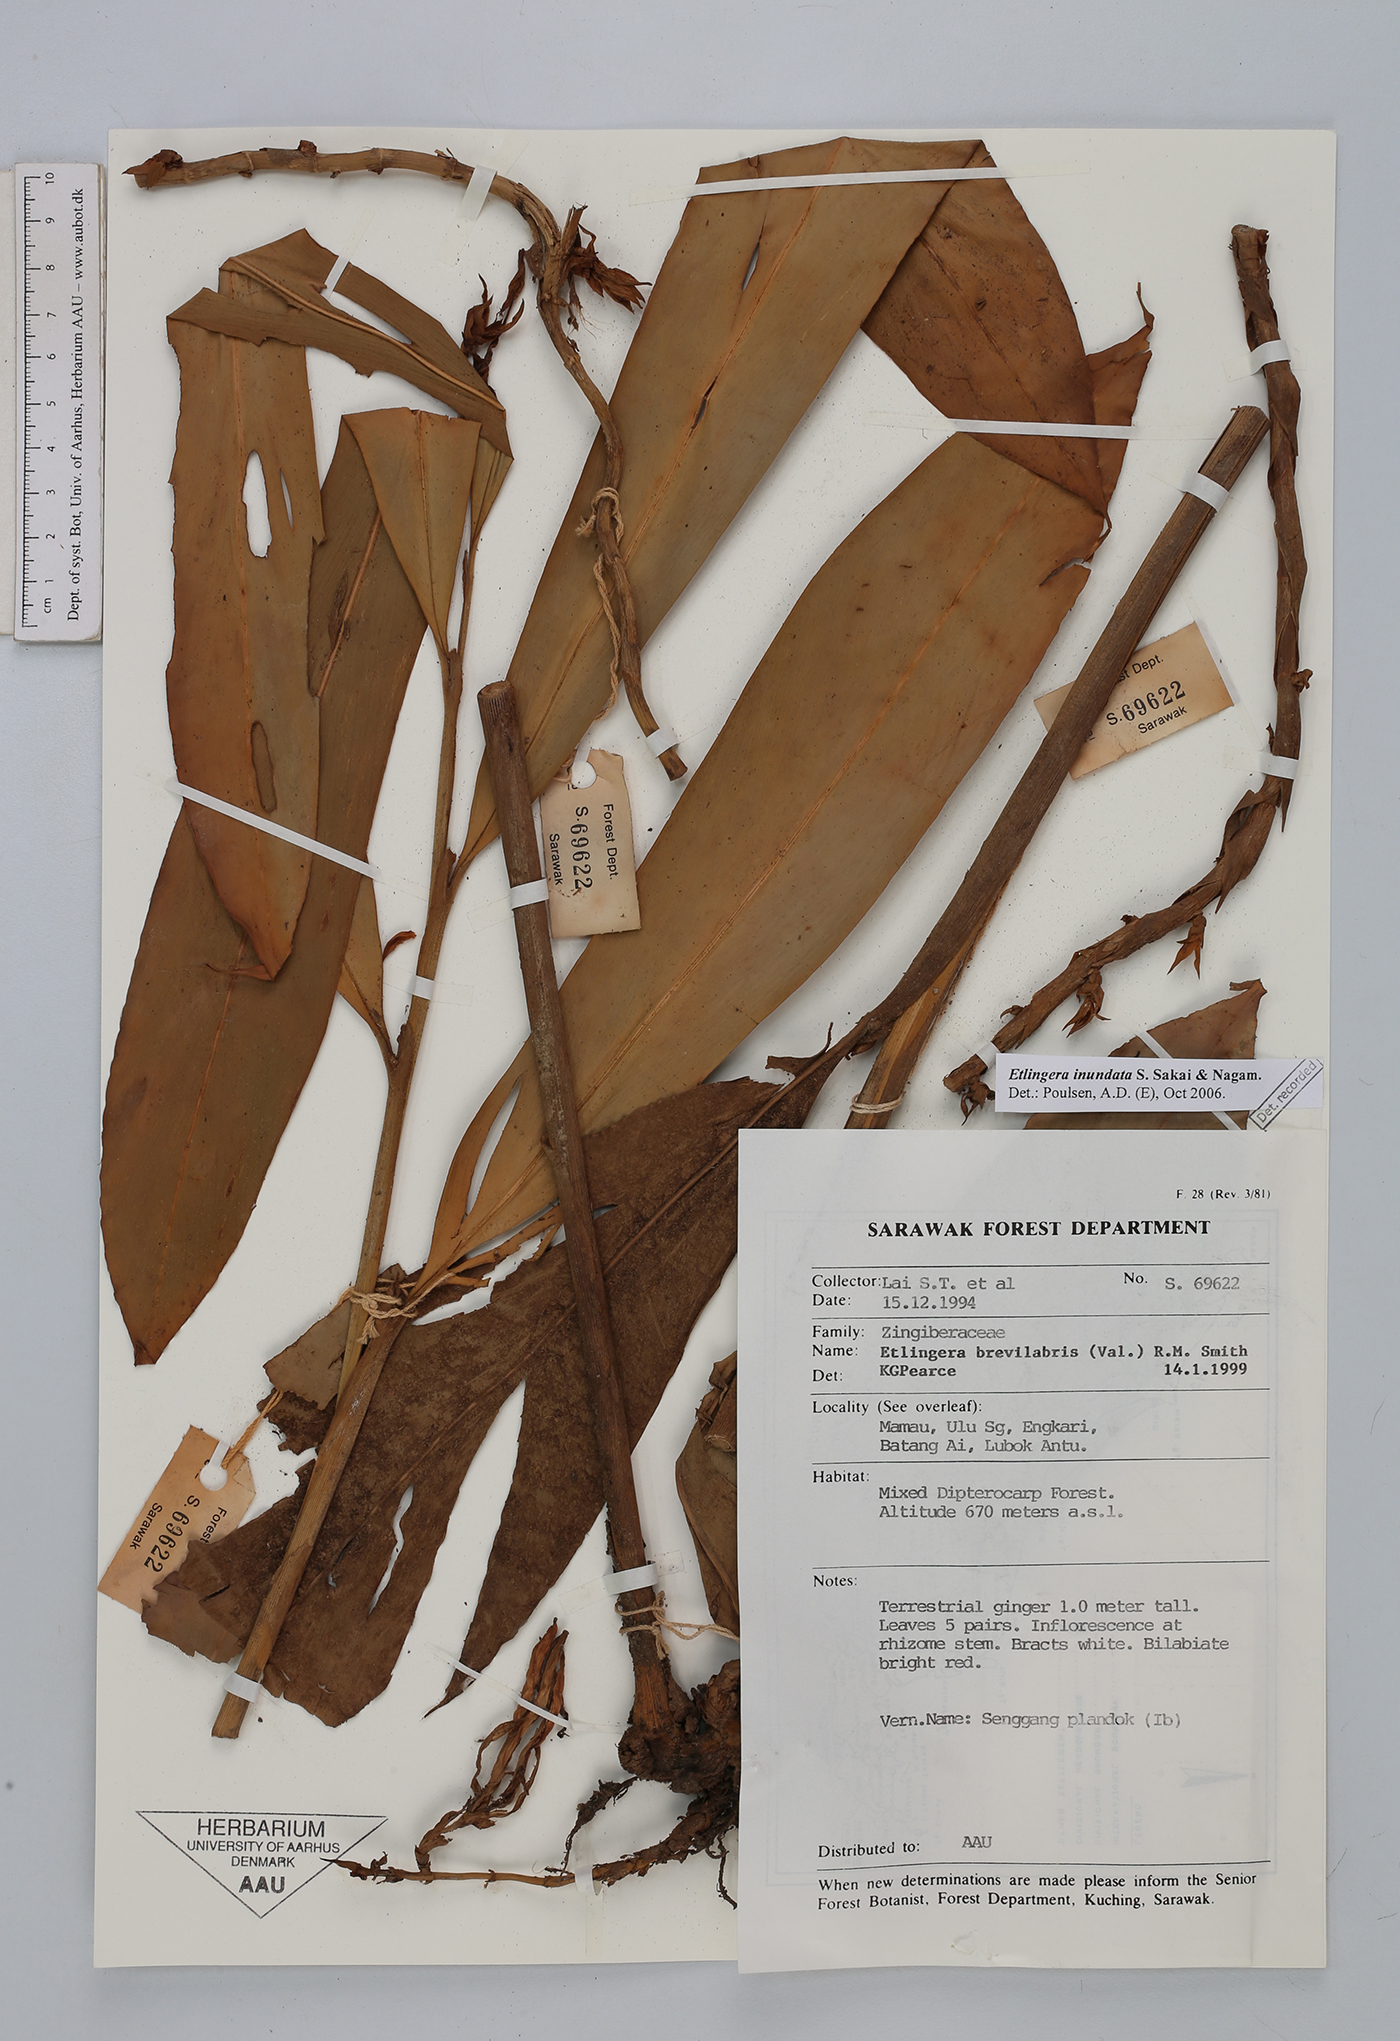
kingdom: Plantae
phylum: Tracheophyta
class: Liliopsida
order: Zingiberales
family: Zingiberaceae
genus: Etlingera
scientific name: Etlingera inundata
